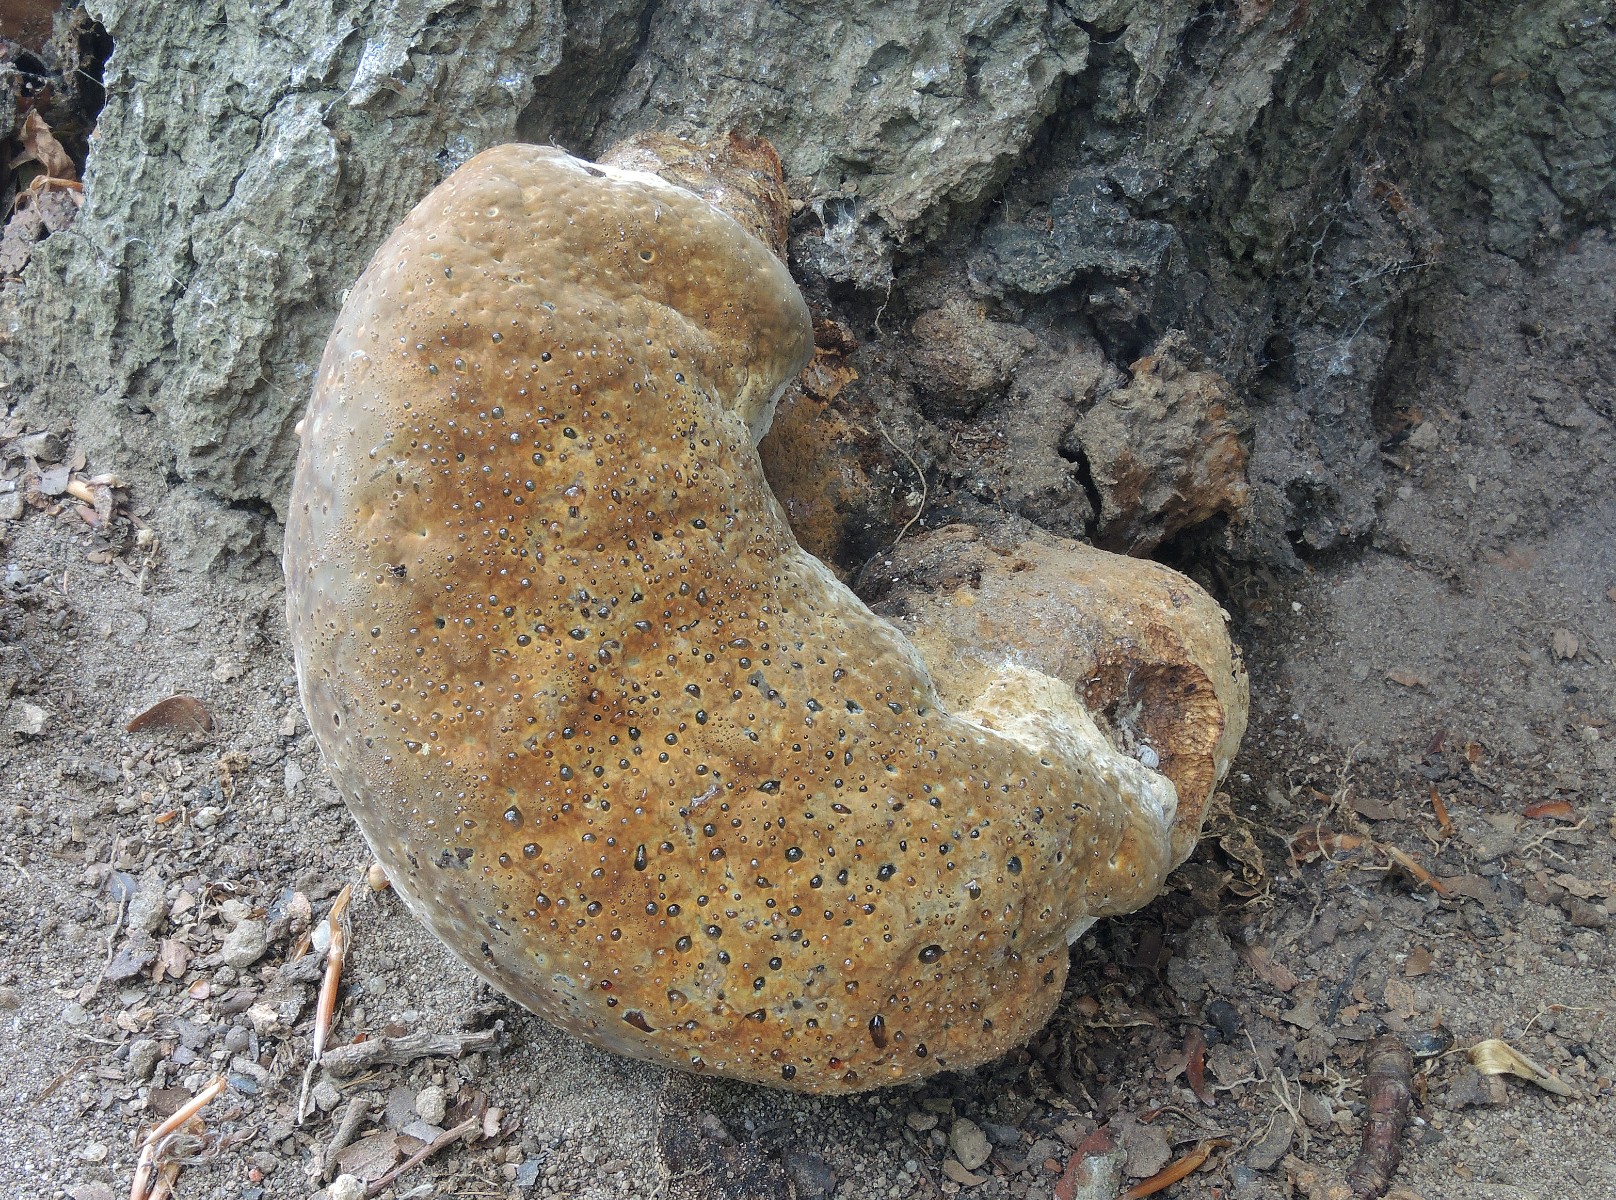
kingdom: Fungi
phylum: Basidiomycota
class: Agaricomycetes
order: Hymenochaetales
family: Hymenochaetaceae
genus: Pseudoinonotus
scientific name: Pseudoinonotus dryadeus
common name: ege-spejlporesvamp
